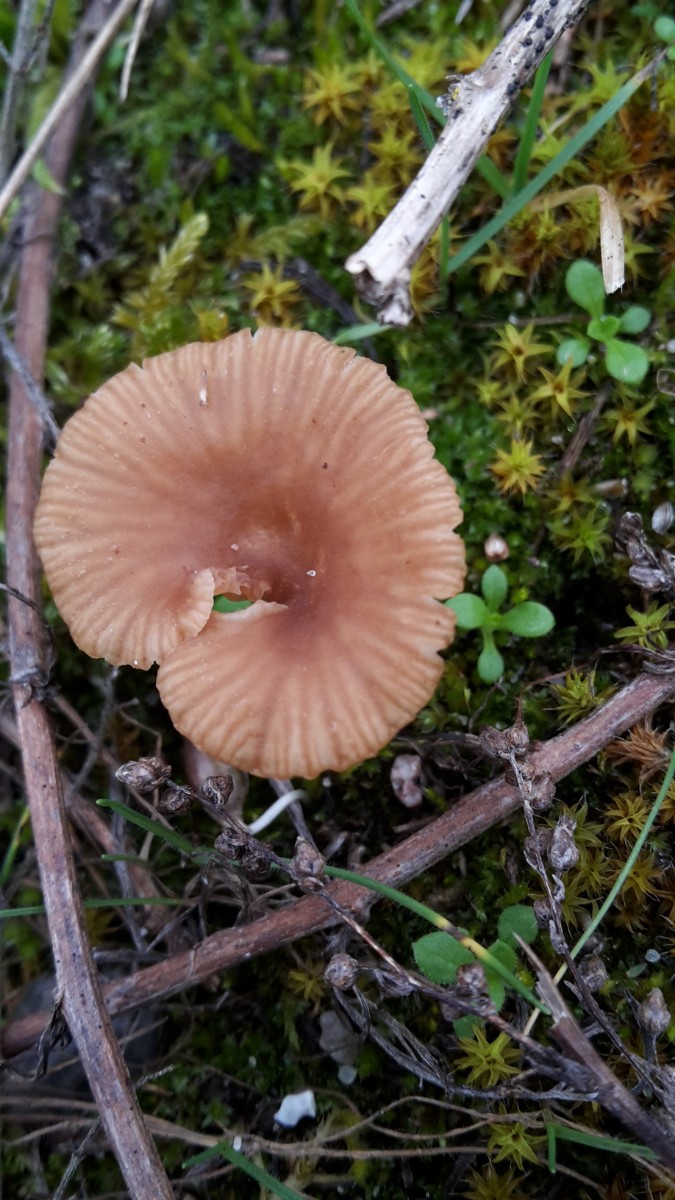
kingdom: Fungi
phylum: Basidiomycota
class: Agaricomycetes
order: Agaricales
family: Tricholomataceae
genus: Omphalina
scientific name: Omphalina pyxidata
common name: rødbrun navlehat
